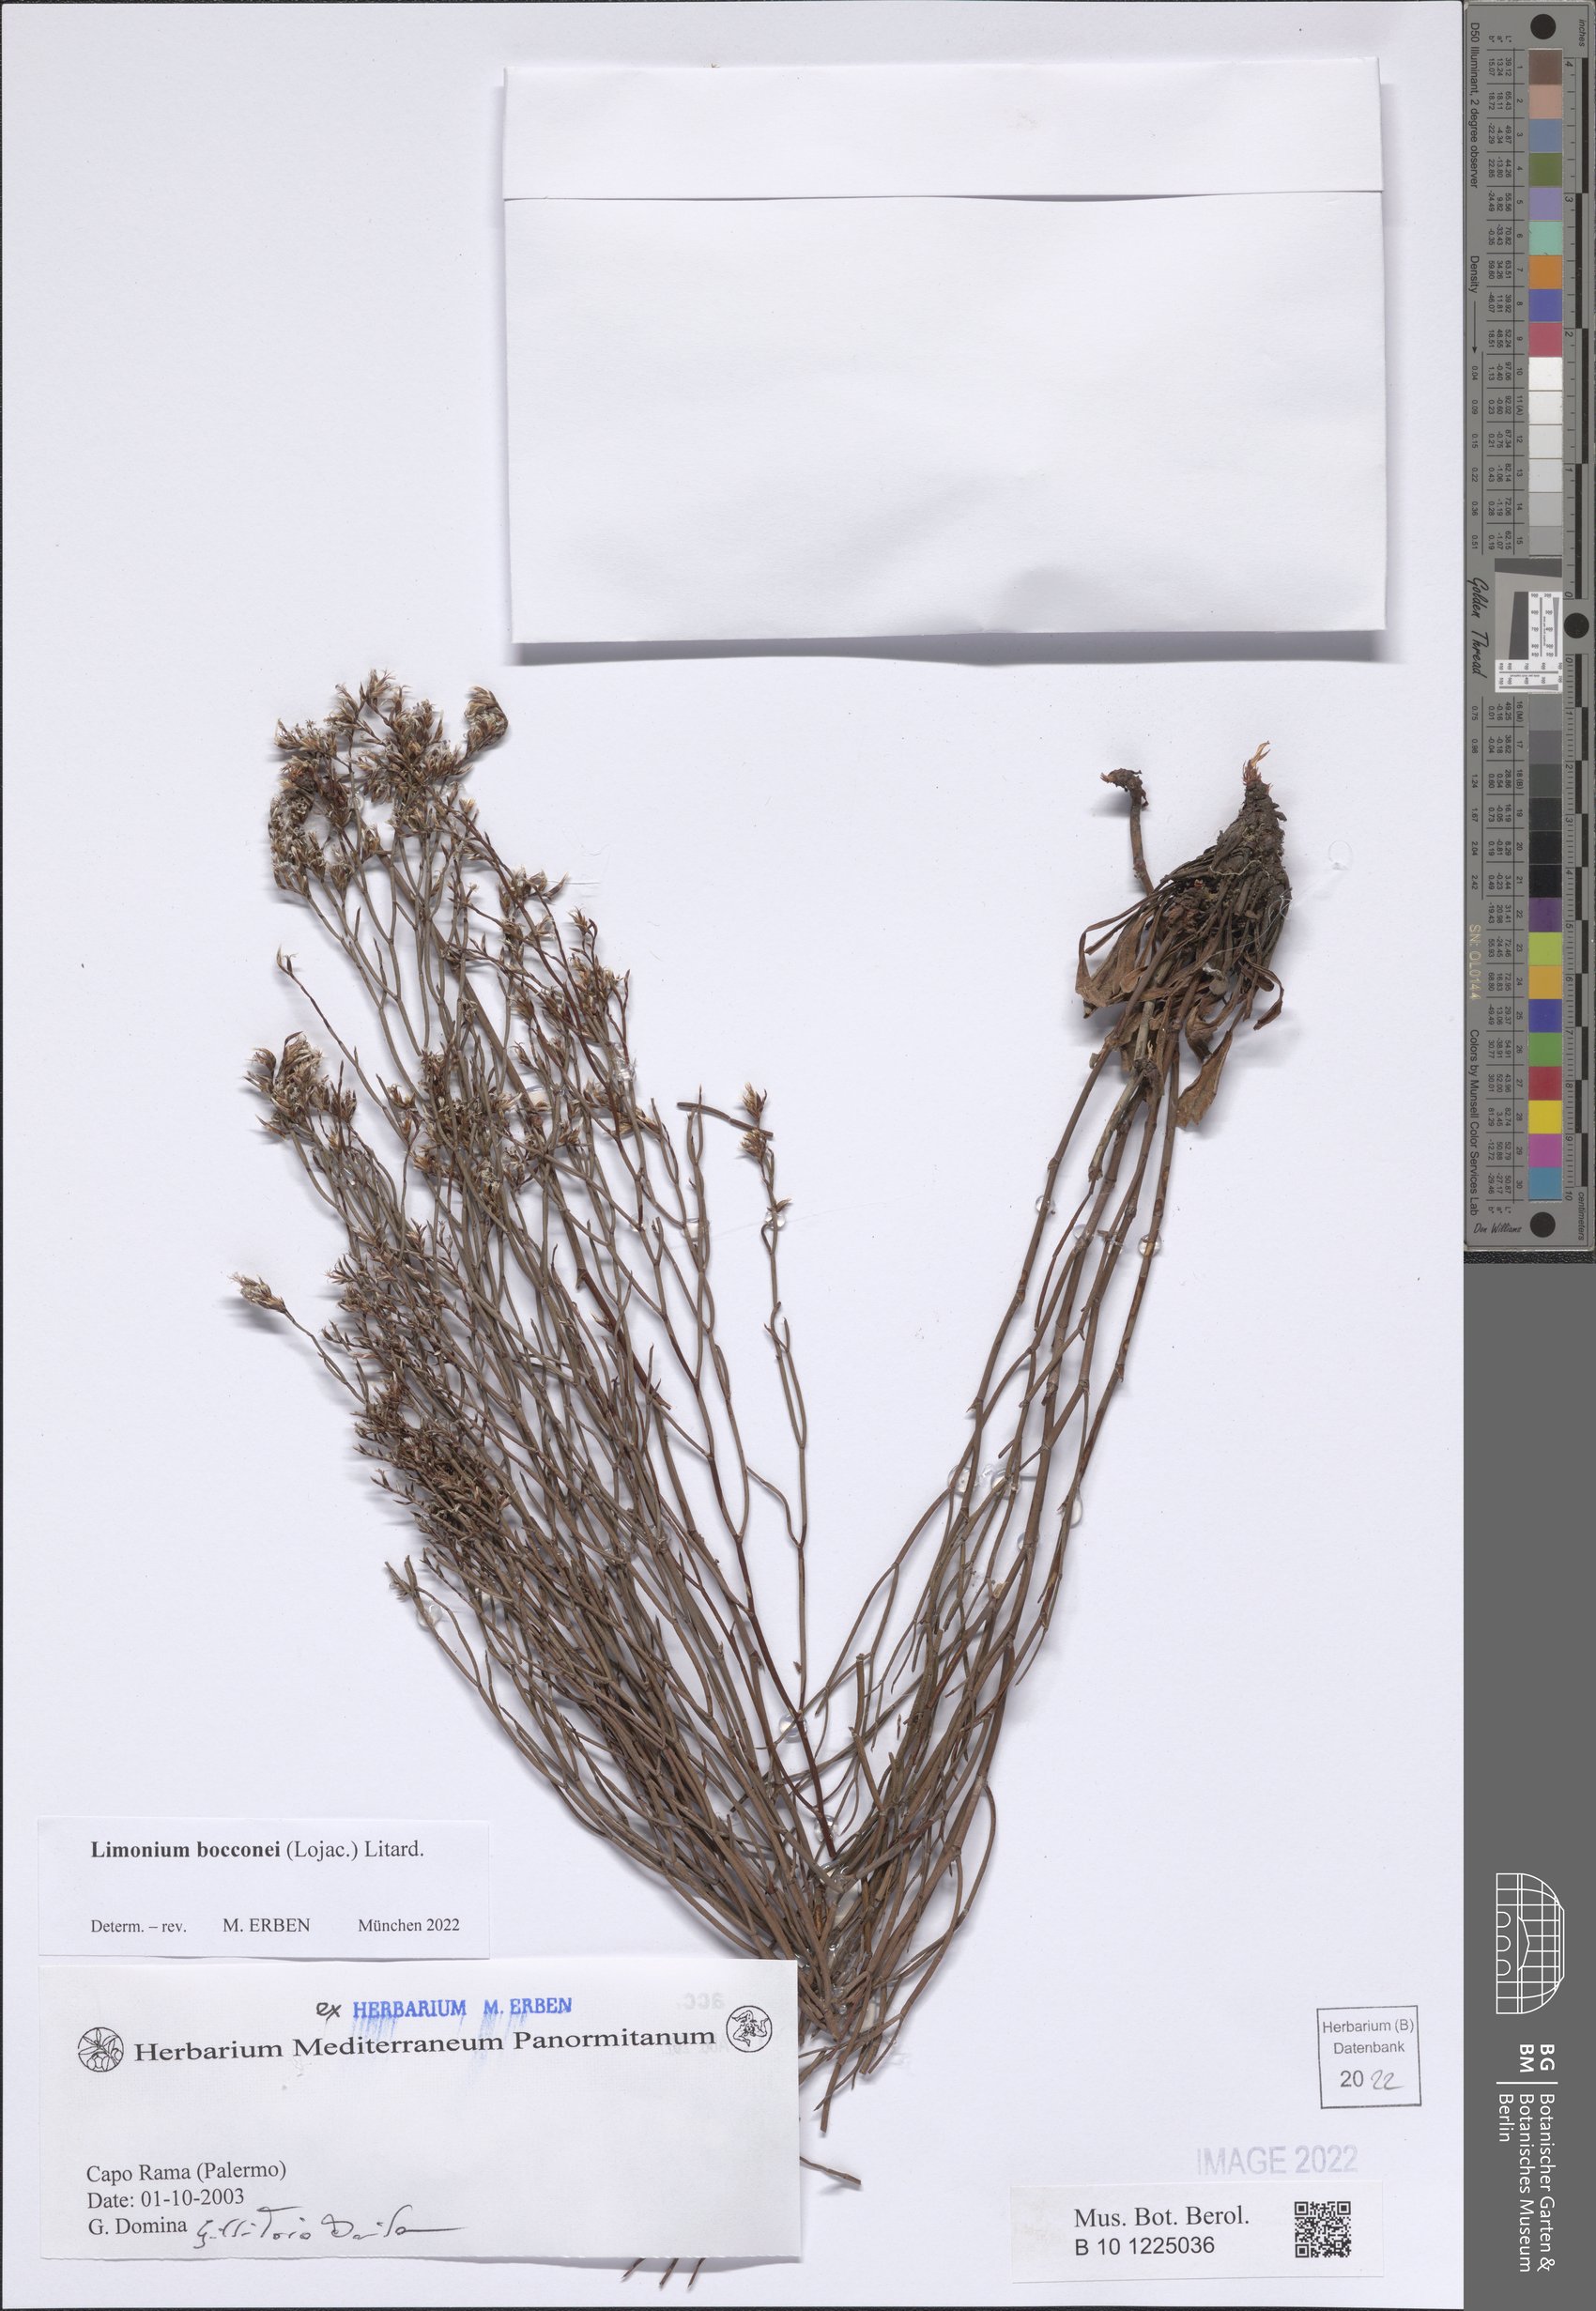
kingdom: Plantae
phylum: Tracheophyta
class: Magnoliopsida
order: Caryophyllales
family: Plumbaginaceae
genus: Limonium
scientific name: Limonium bocconei
